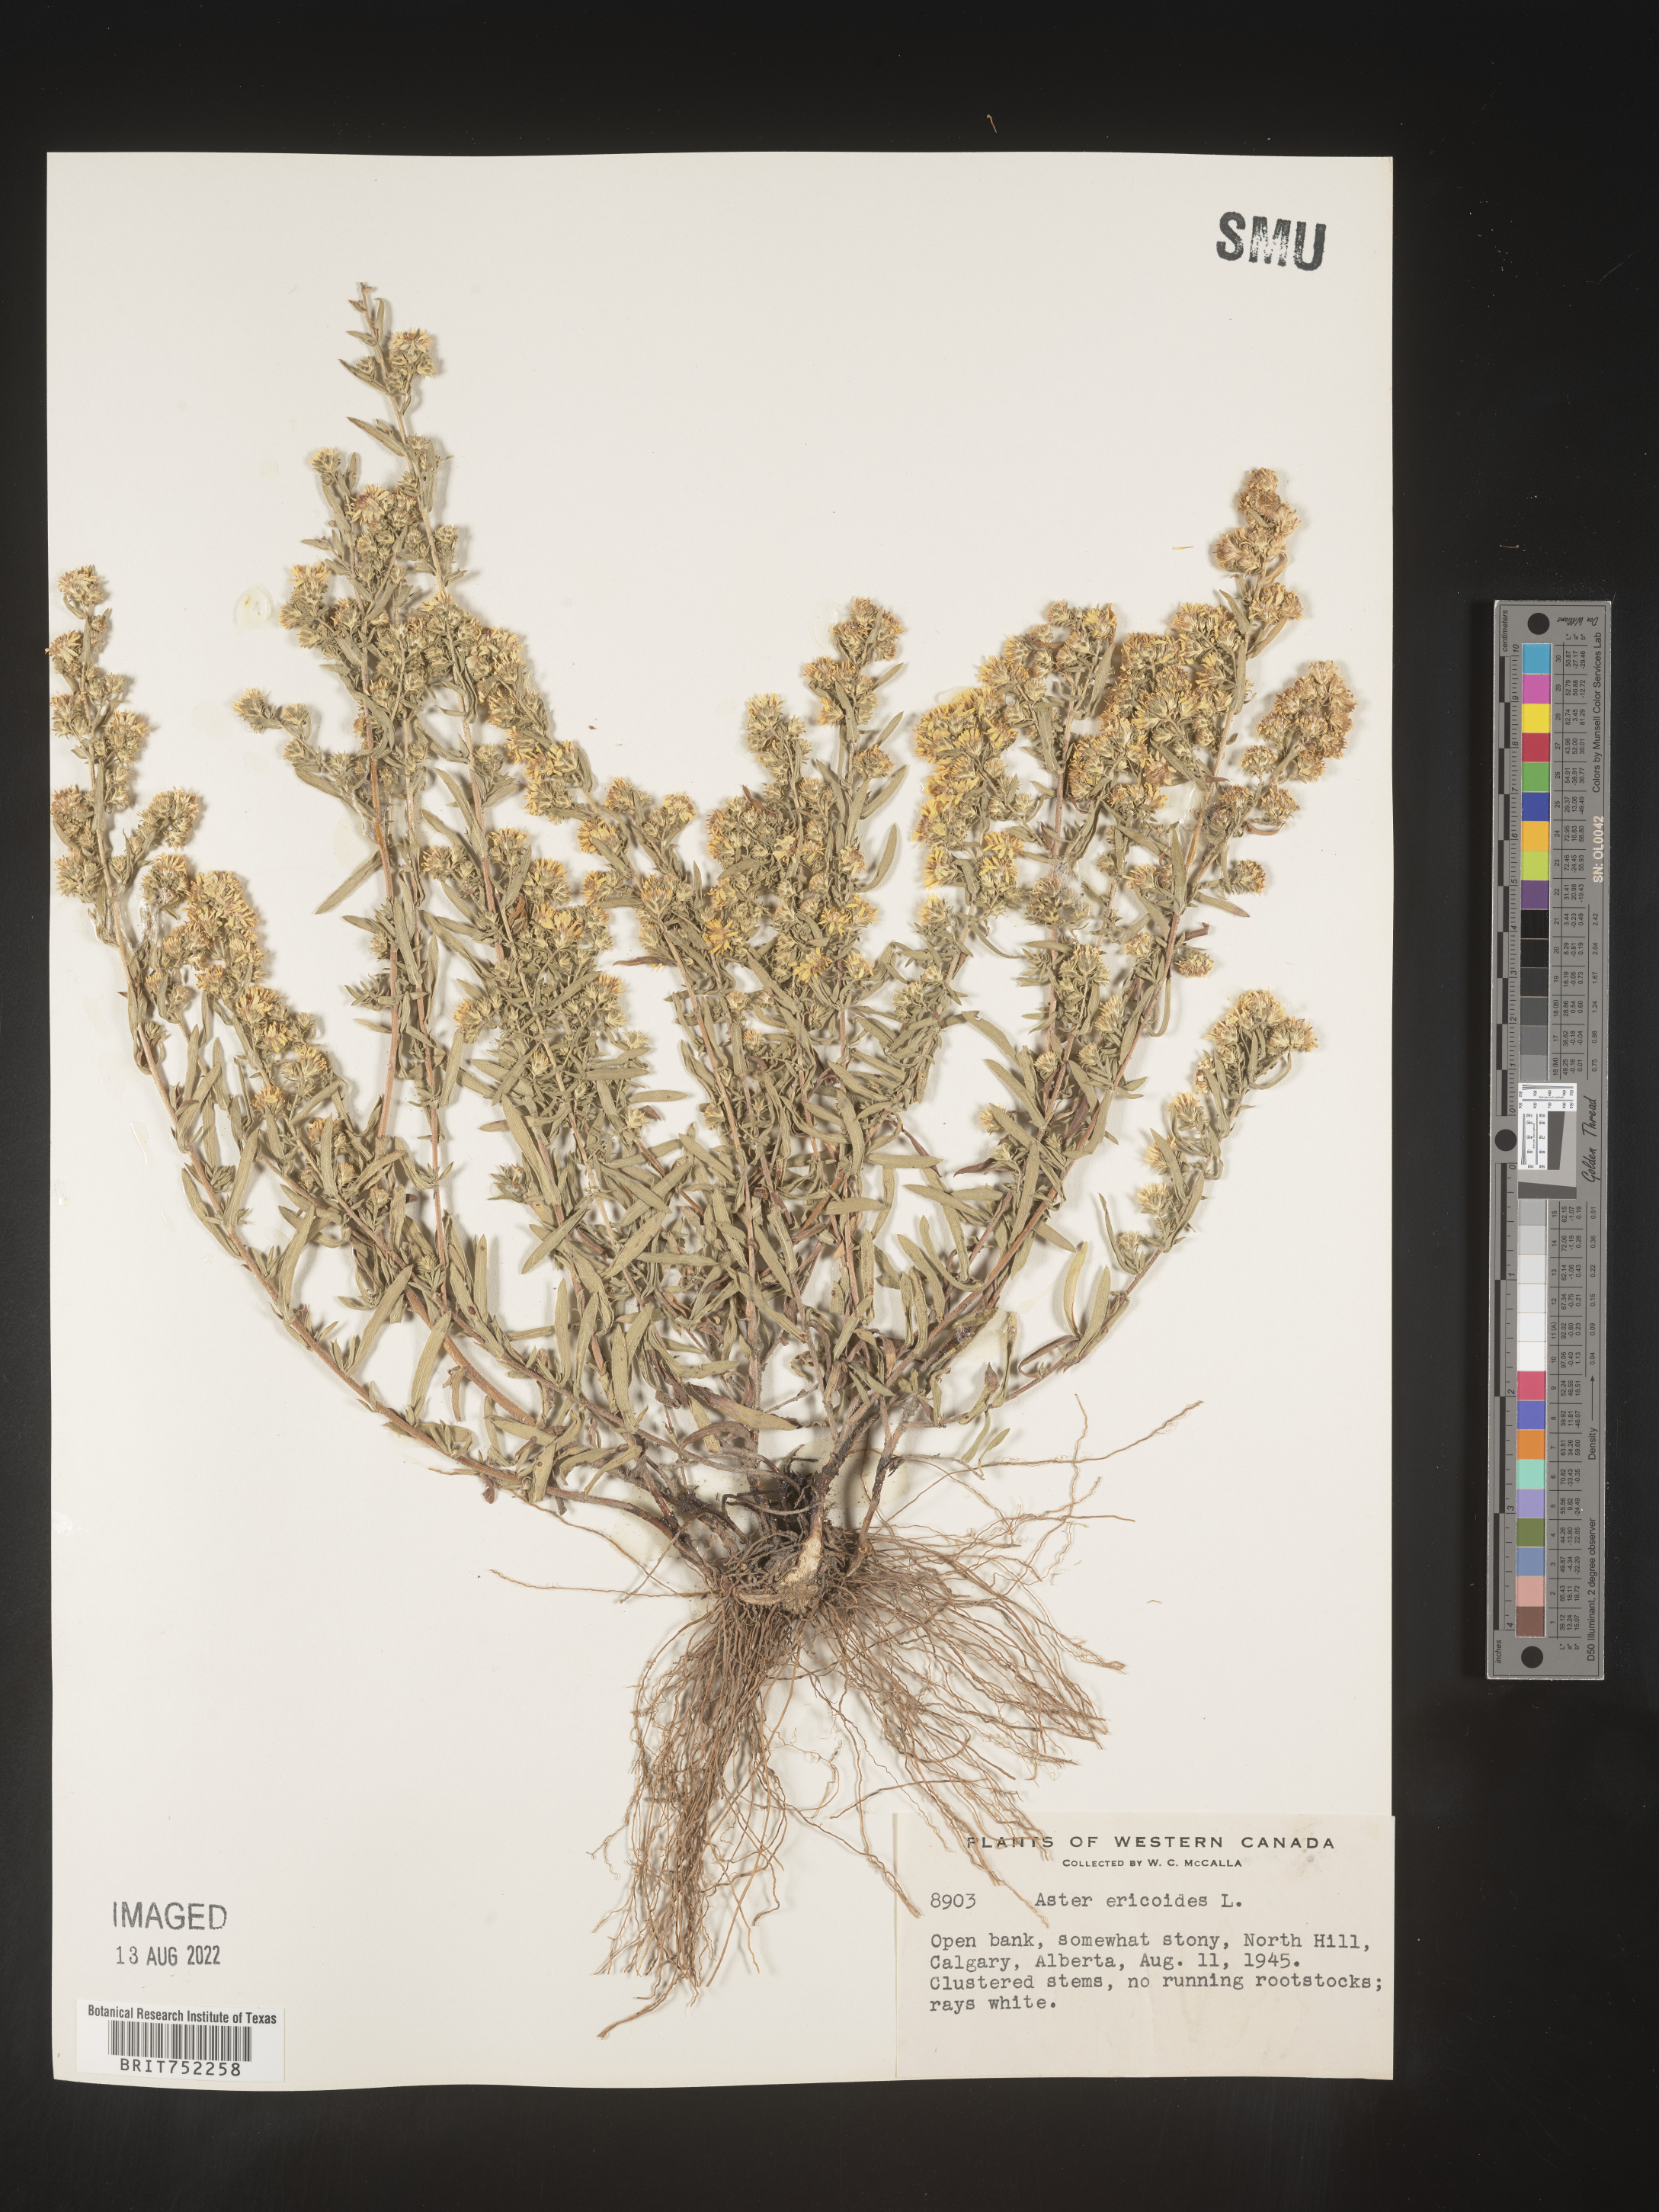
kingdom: Plantae
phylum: Tracheophyta
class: Magnoliopsida
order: Asterales
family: Asteraceae
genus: Symphyotrichum
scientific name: Symphyotrichum ericoides
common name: Heath aster
